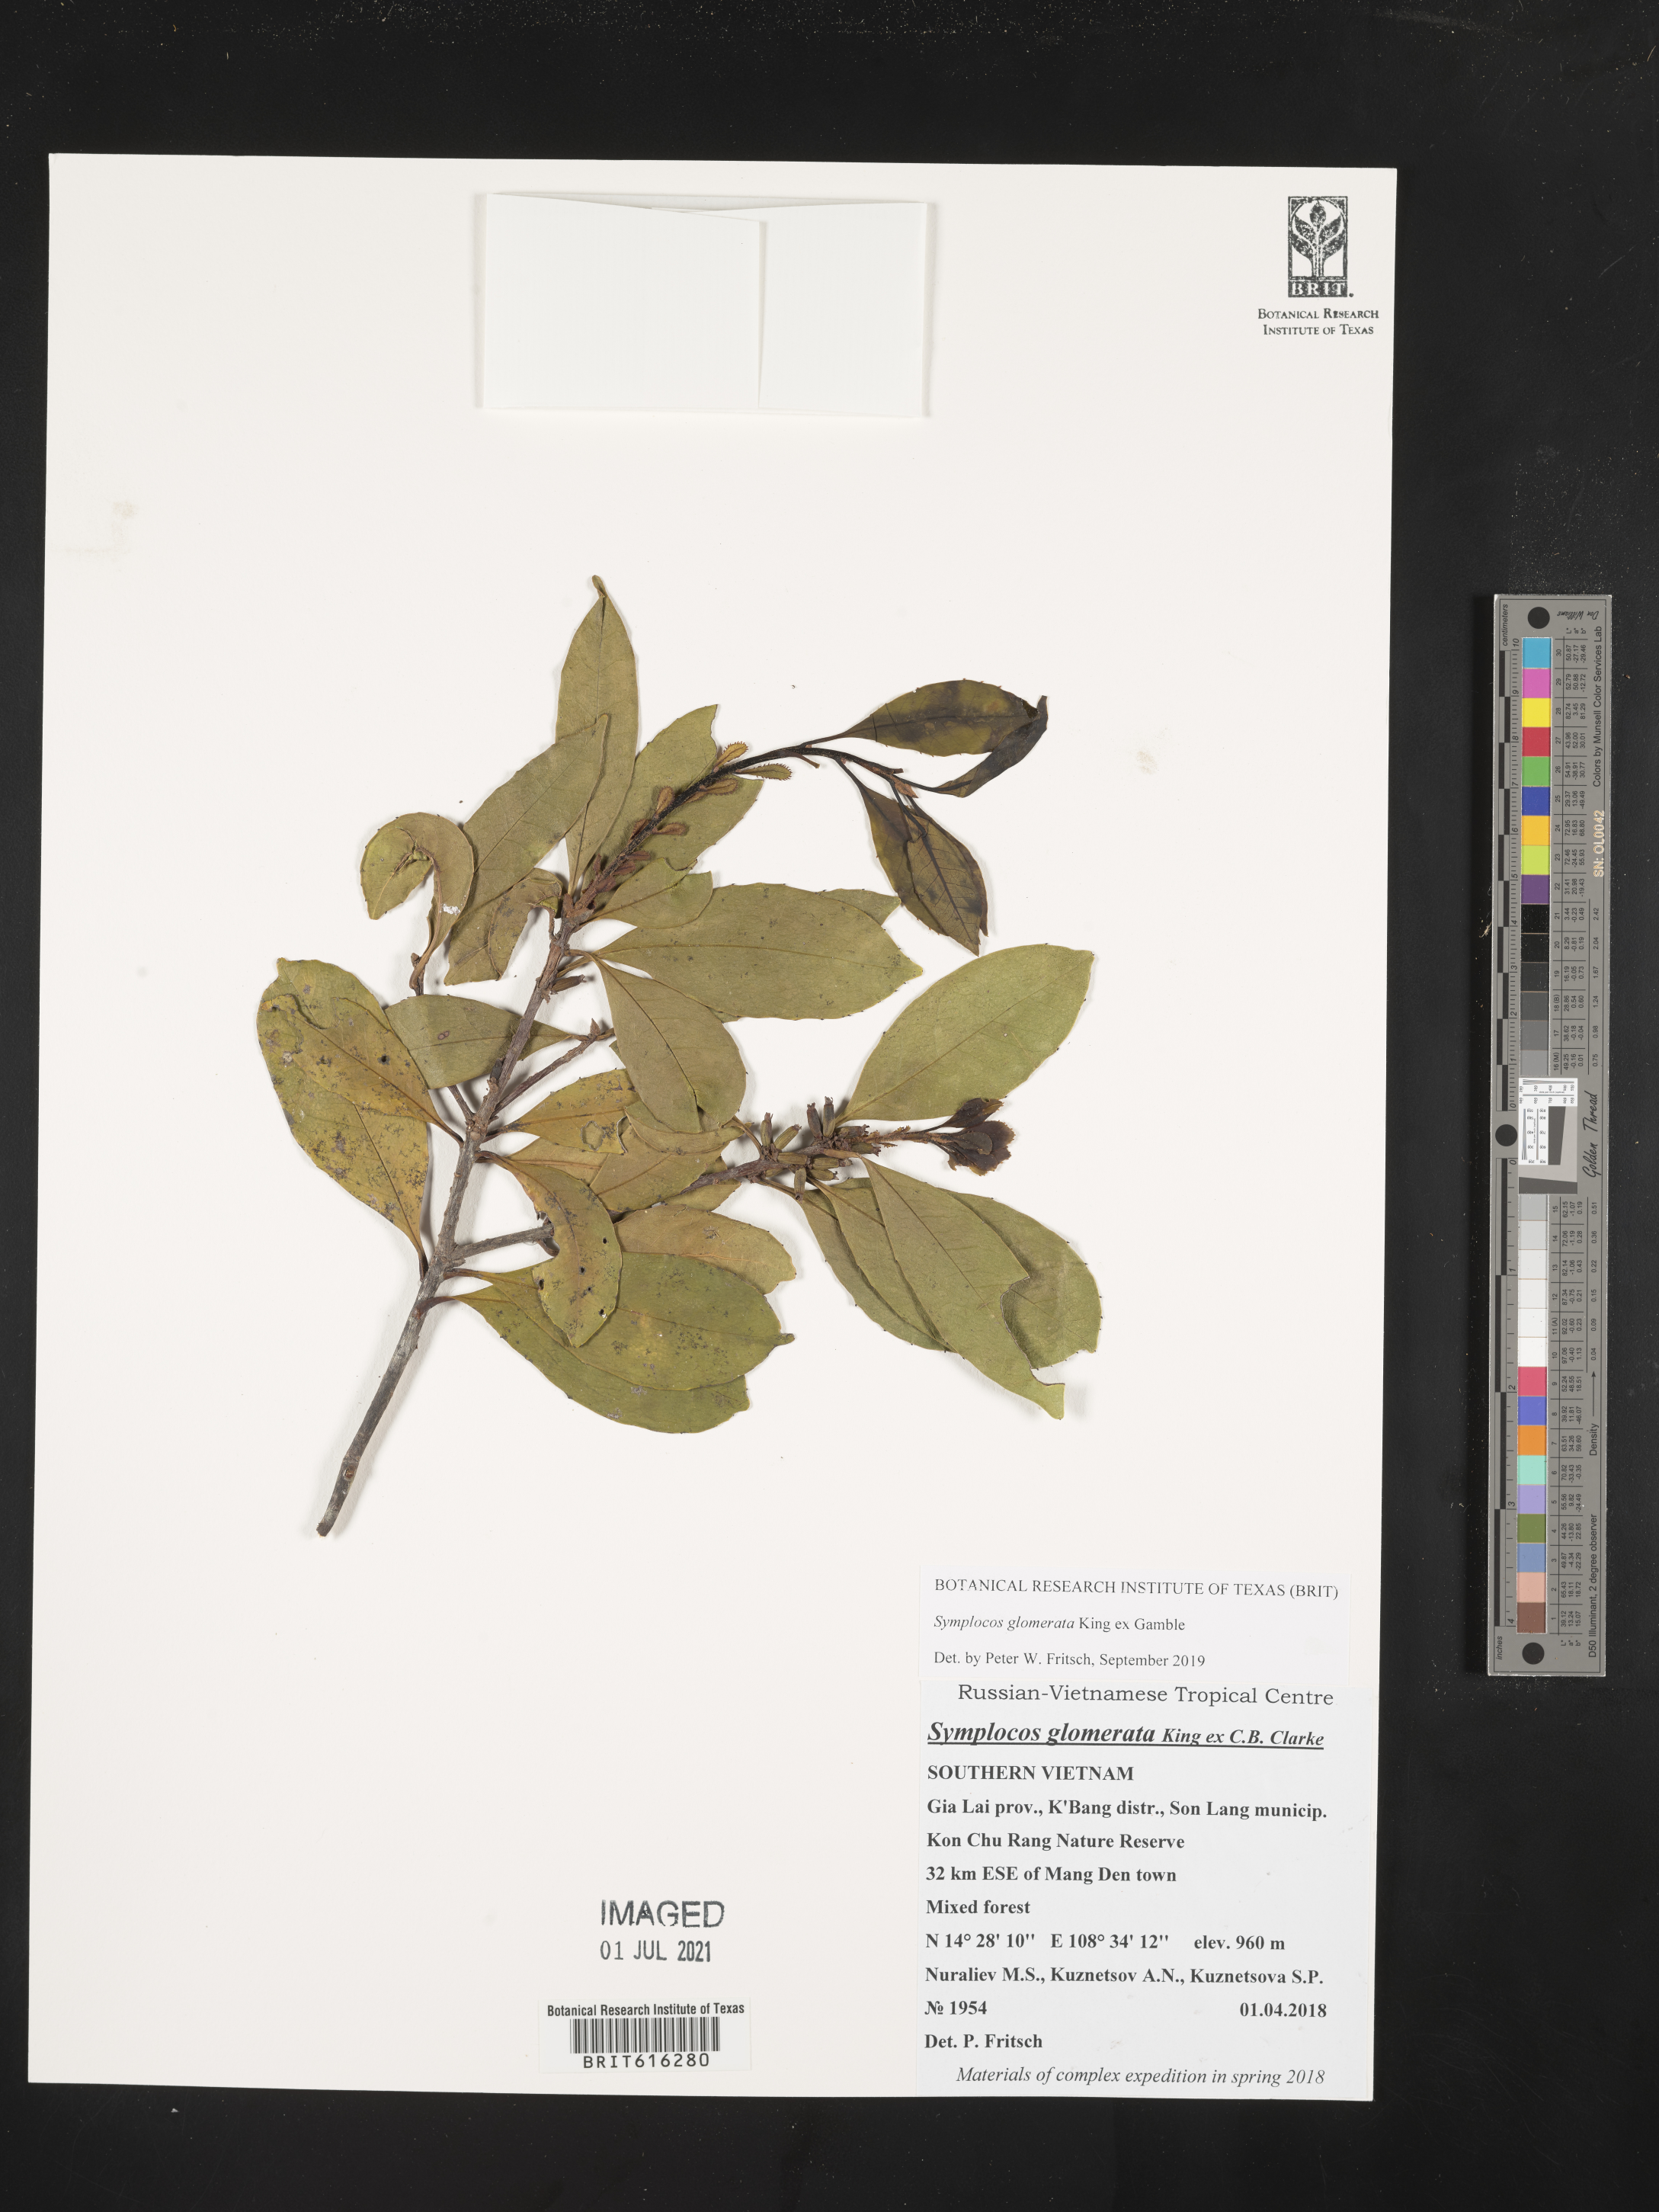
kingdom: Plantae
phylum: Tracheophyta
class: Magnoliopsida
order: Ericales
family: Symplocaceae
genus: Symplocos
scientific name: Symplocos glomerata
